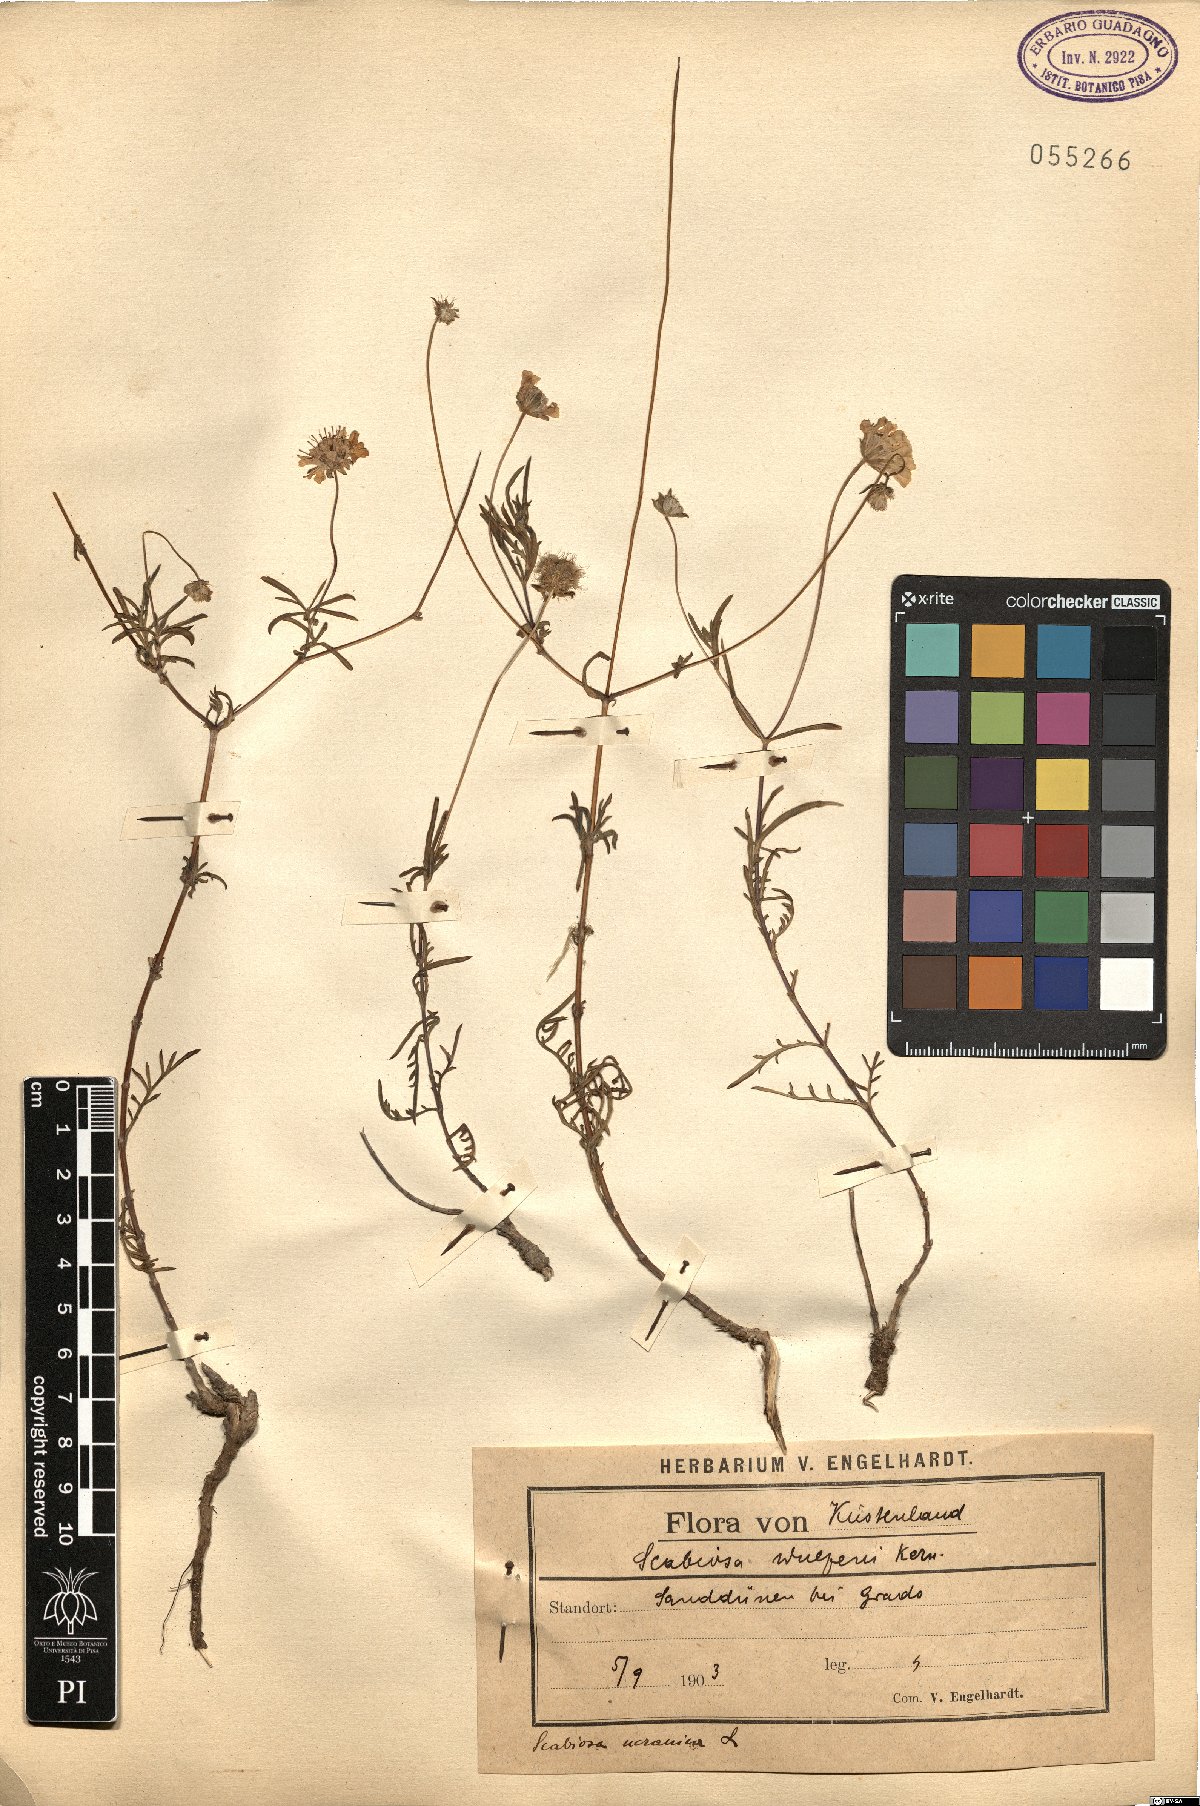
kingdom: Plantae
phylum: Tracheophyta
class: Magnoliopsida
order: Dipsacales
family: Caprifoliaceae
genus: Lomelosia
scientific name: Lomelosia argentea
